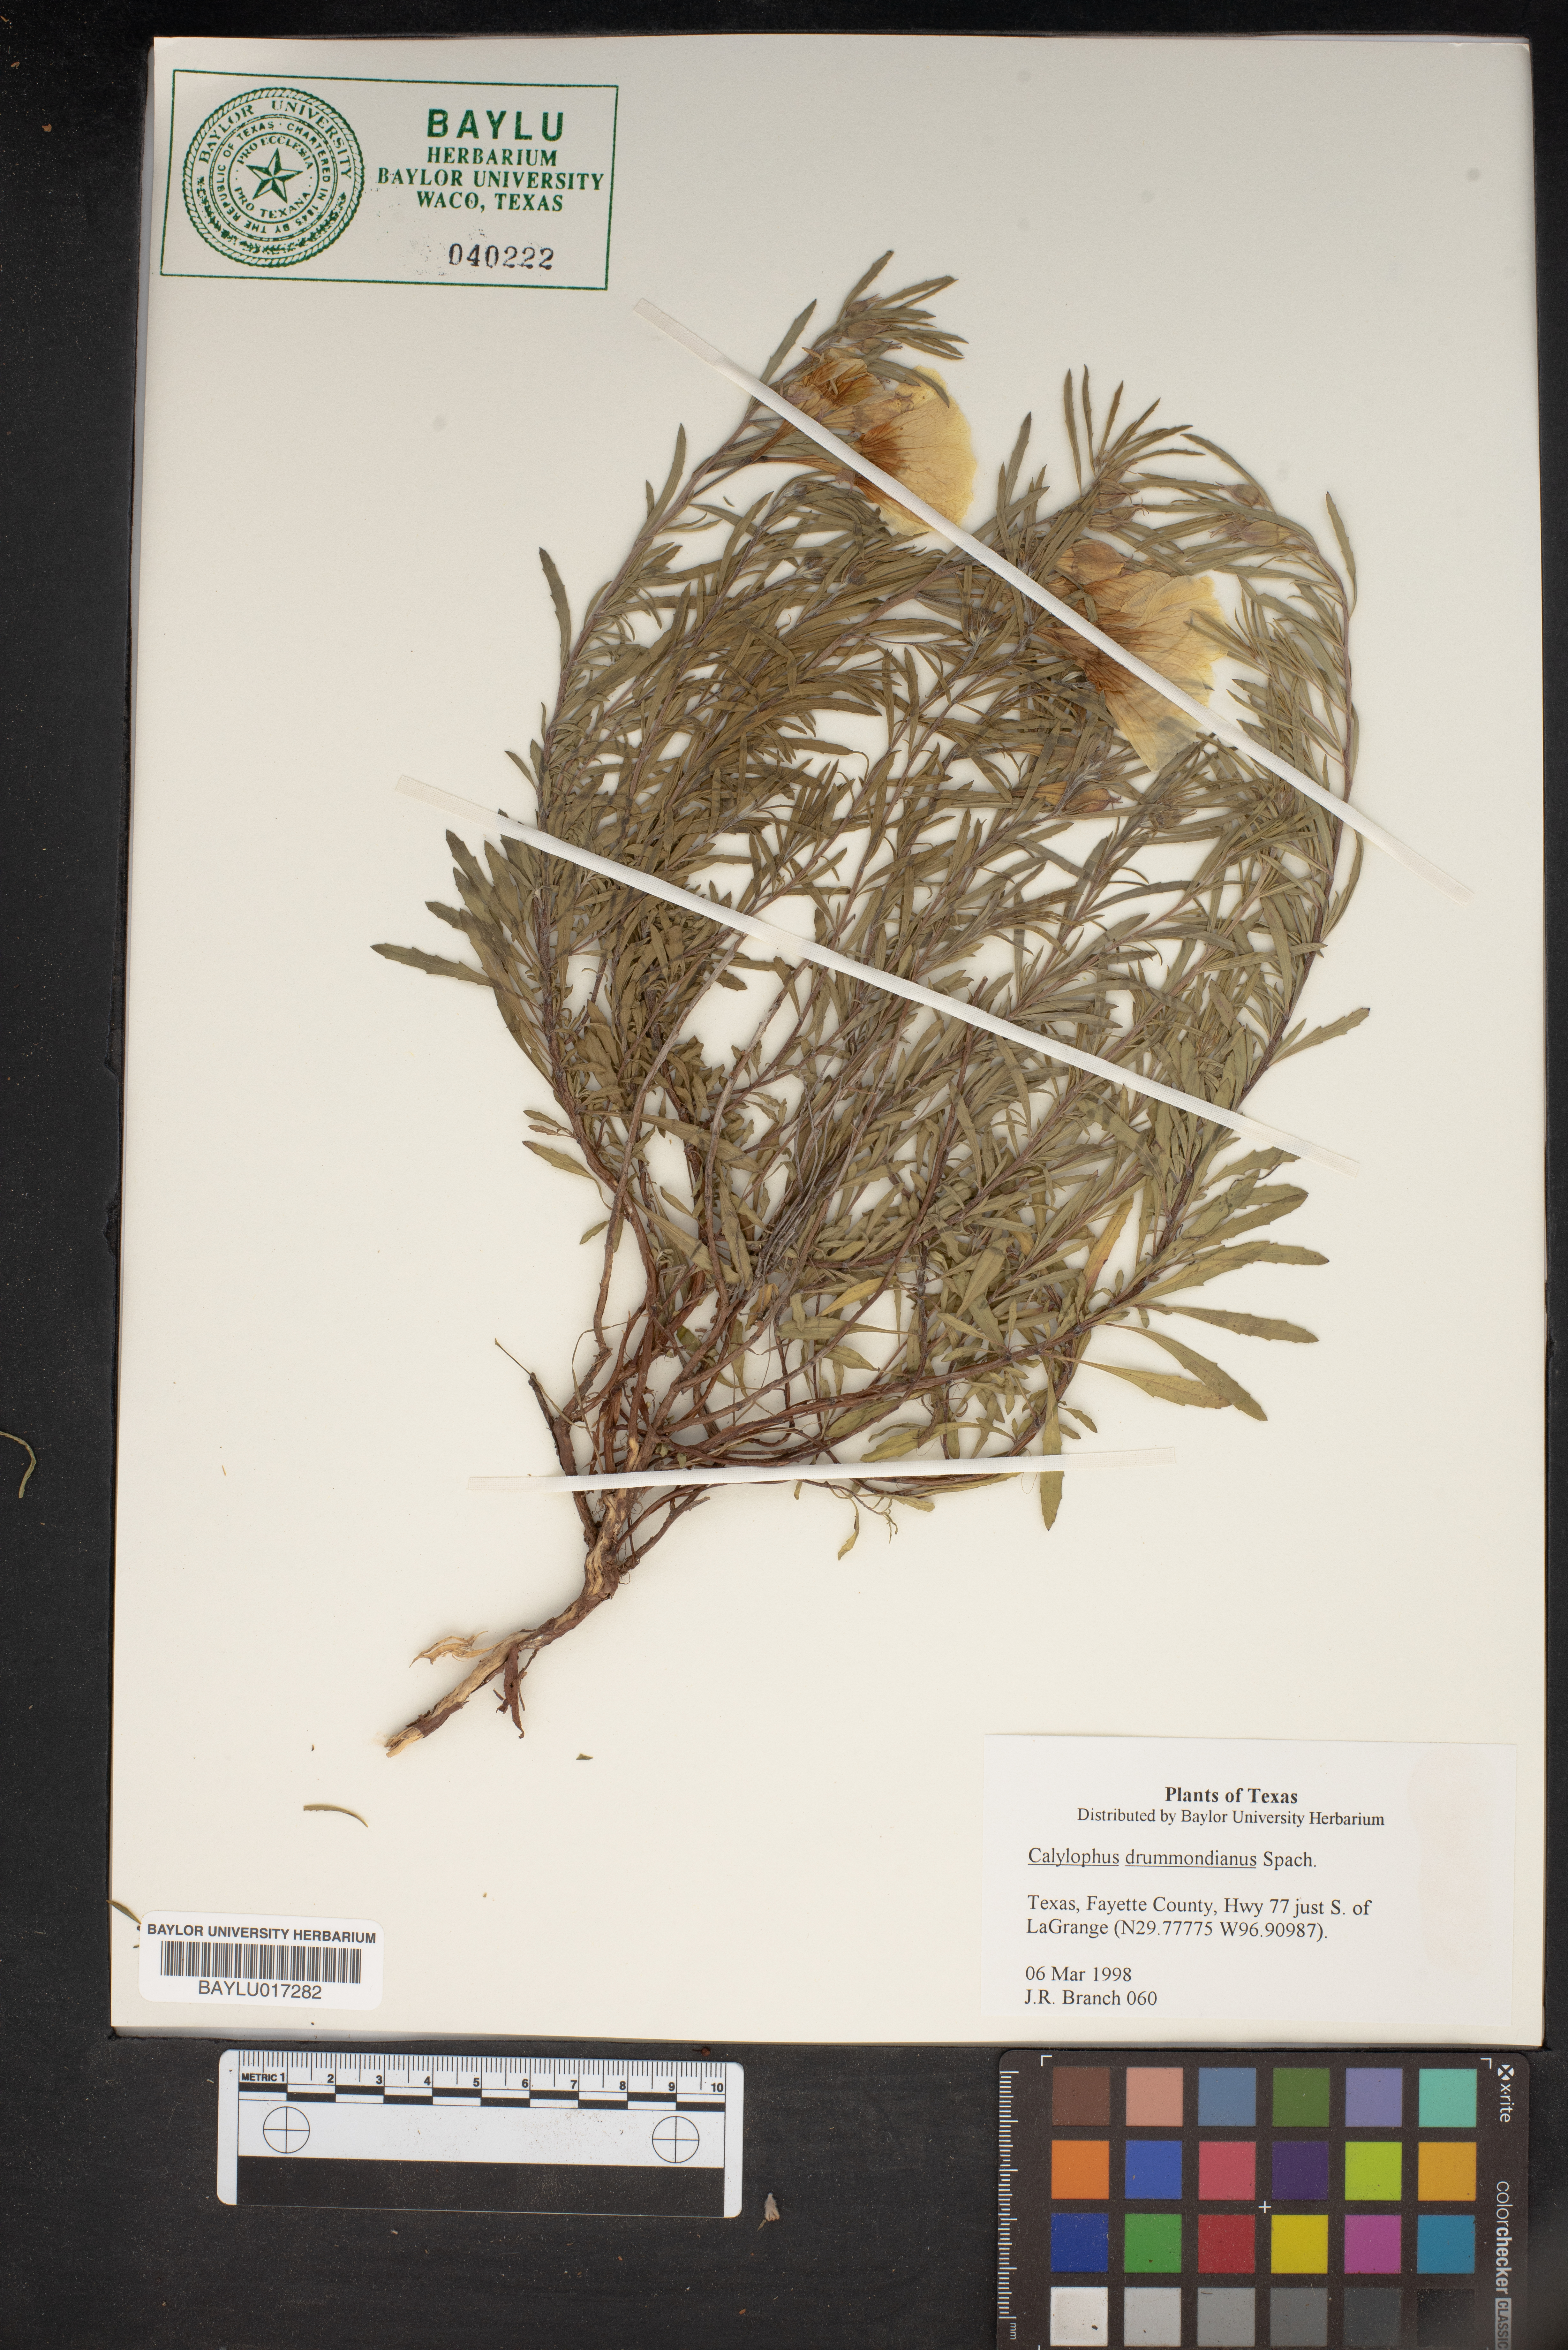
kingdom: Plantae
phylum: Tracheophyta
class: Magnoliopsida
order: Myrtales
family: Onagraceae
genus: Oenothera
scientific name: Oenothera serrulata
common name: Half-shrub calylophus
